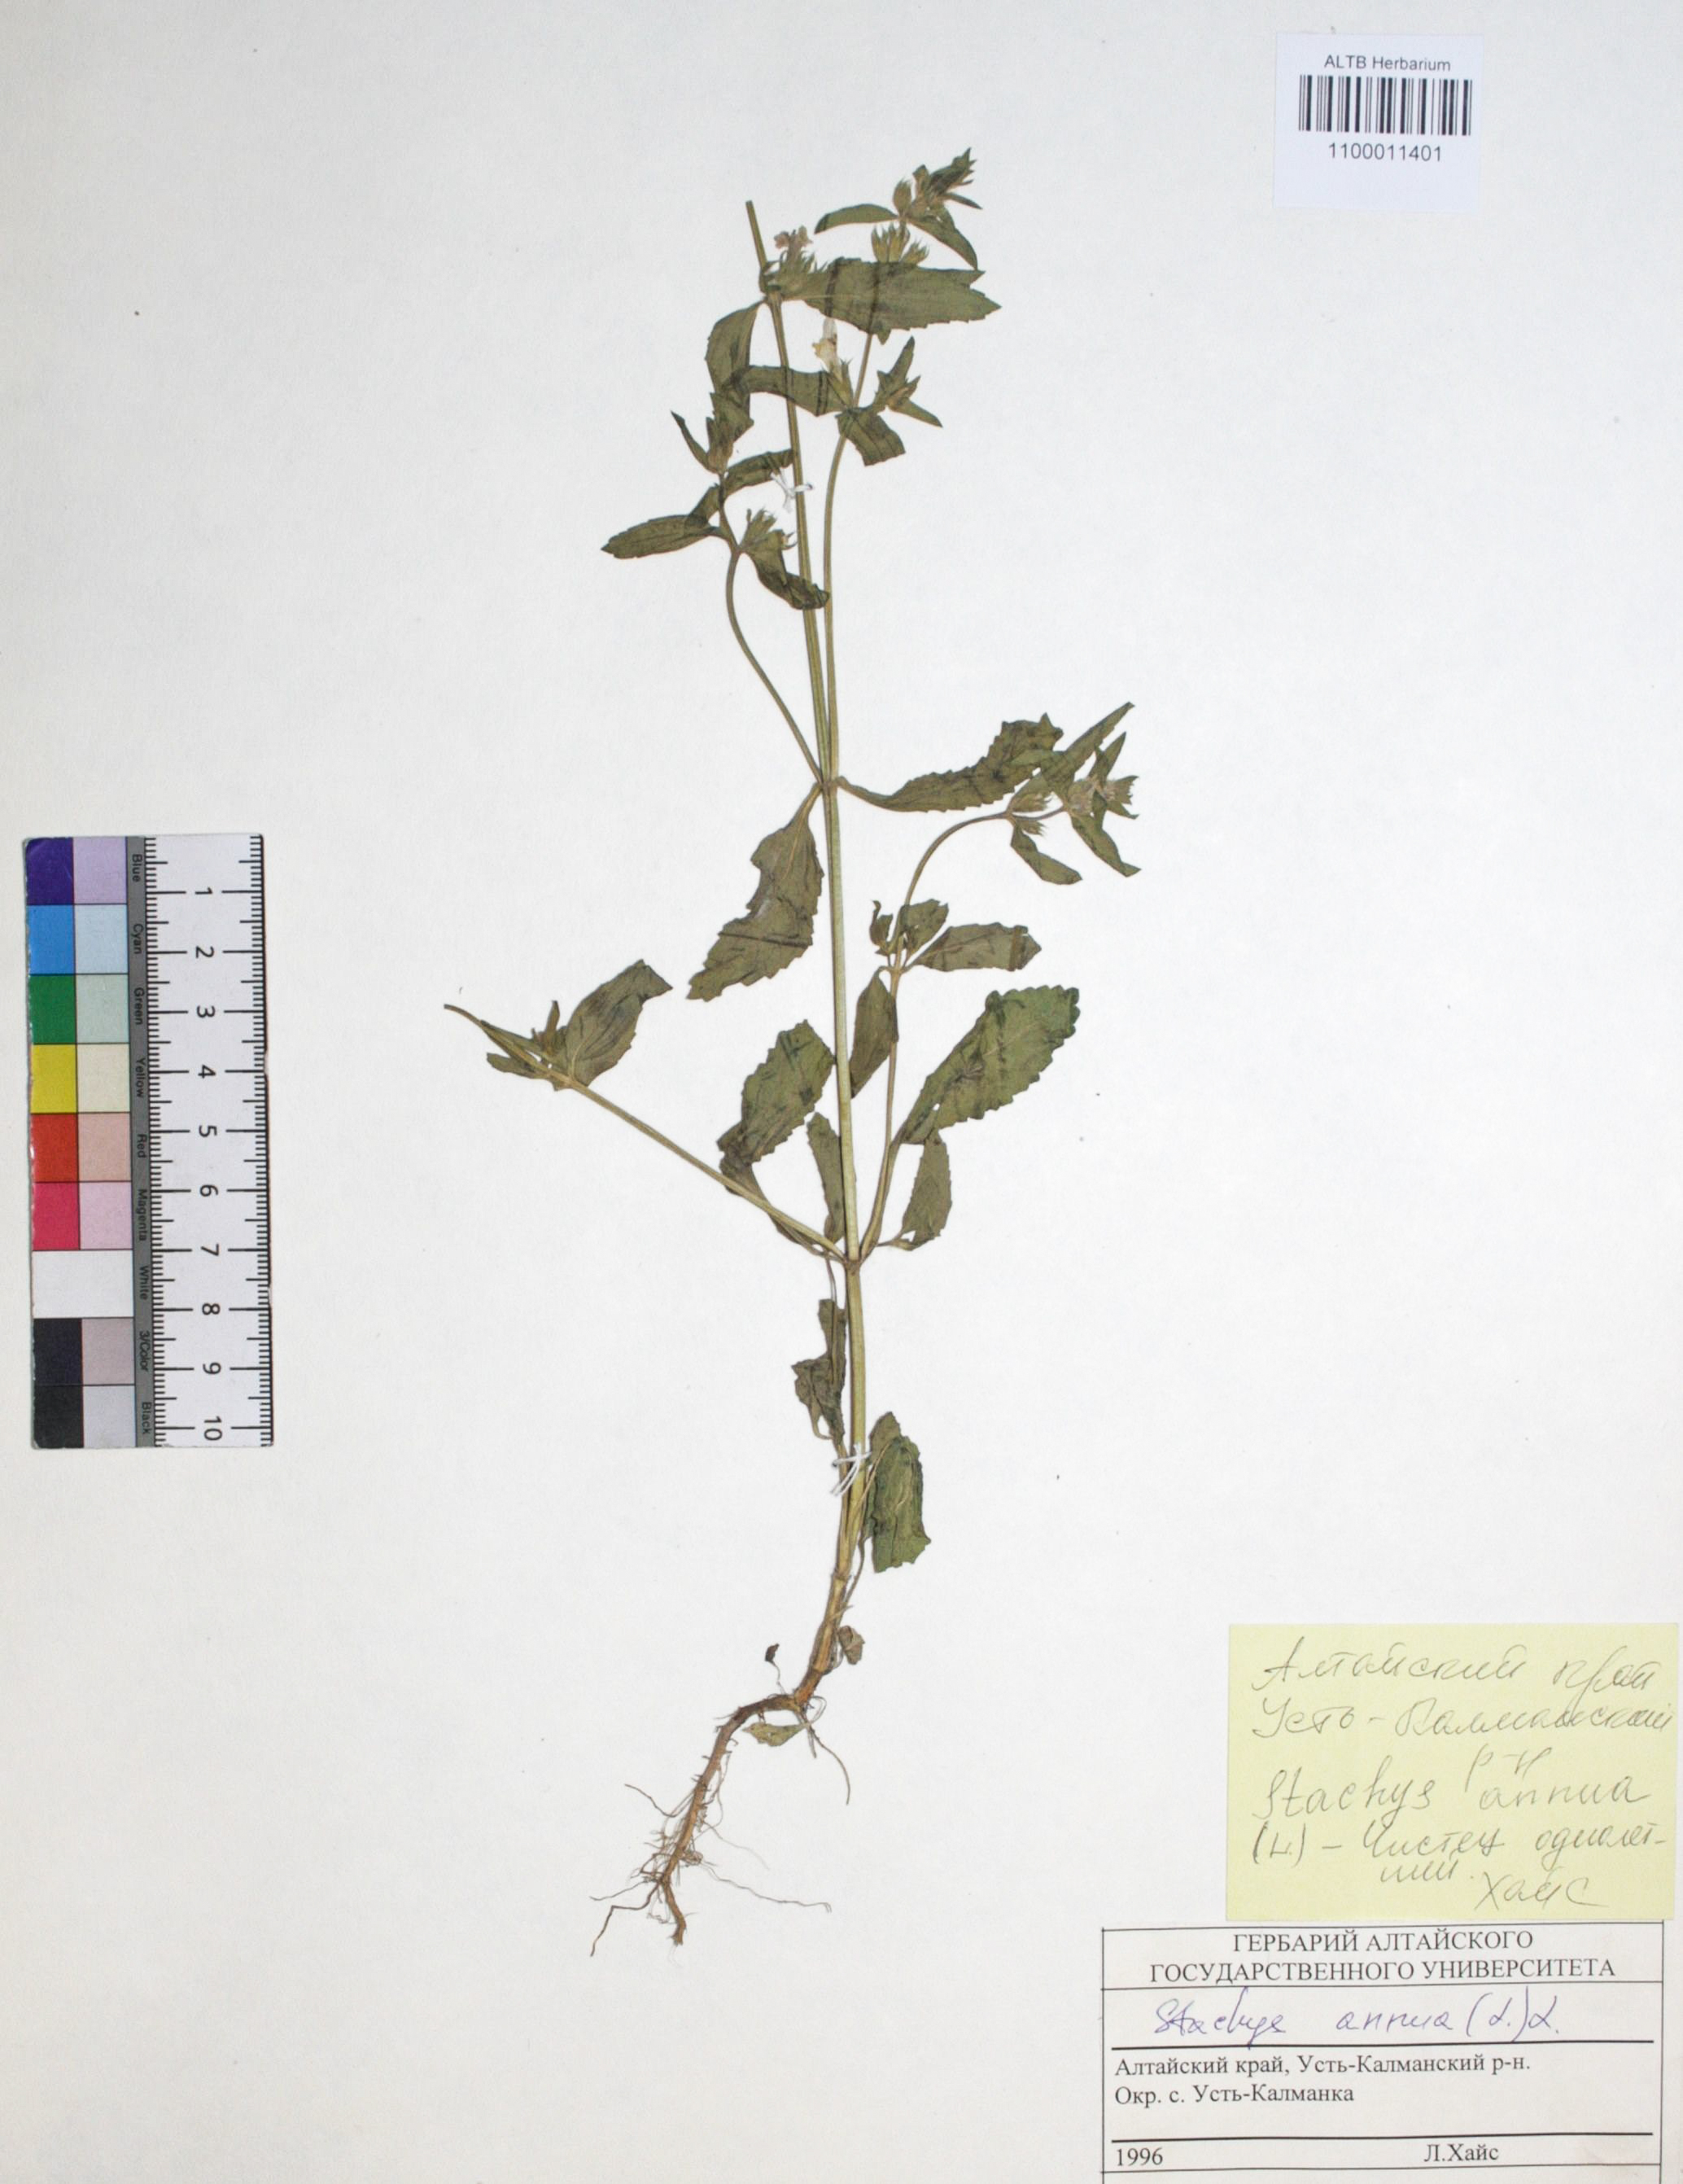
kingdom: Plantae
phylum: Tracheophyta
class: Magnoliopsida
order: Lamiales
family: Lamiaceae
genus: Stachys
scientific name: Stachys annua
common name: Annual yellow-woundwort
